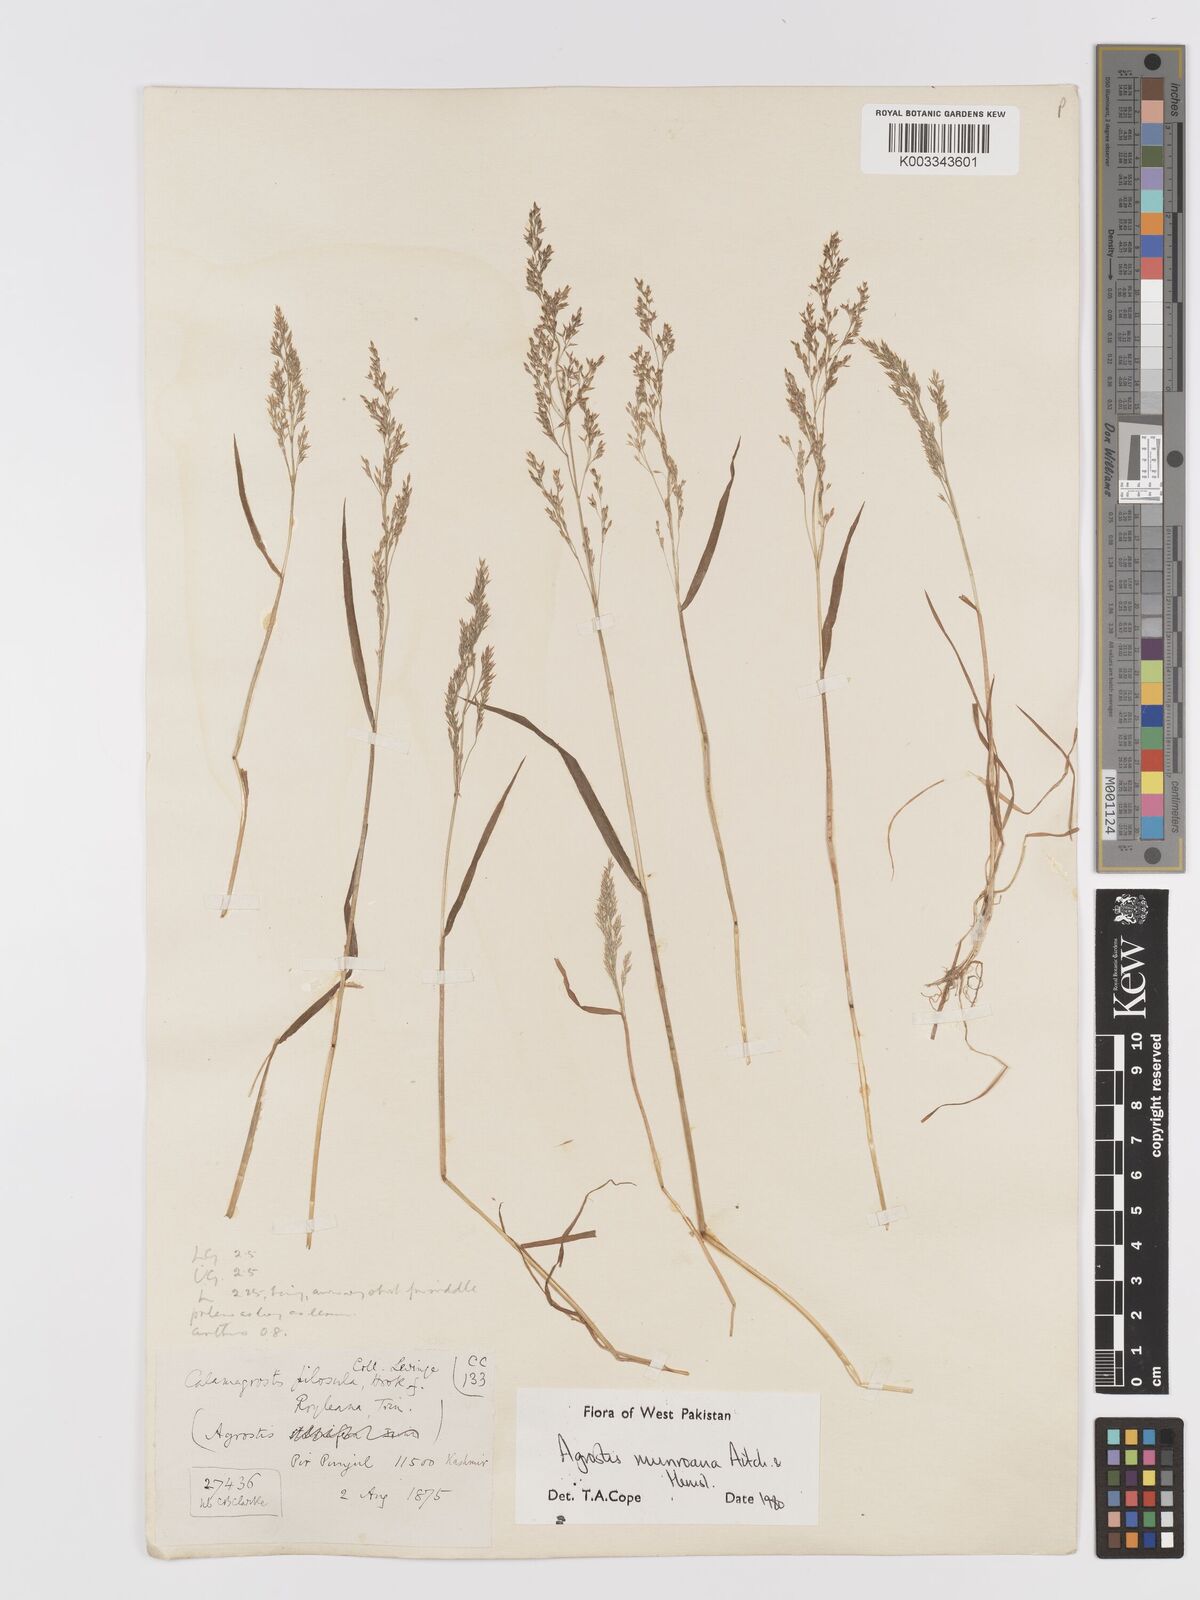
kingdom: Plantae
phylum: Tracheophyta
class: Liliopsida
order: Poales
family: Poaceae
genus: Agrostis
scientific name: Agrostis munroana
